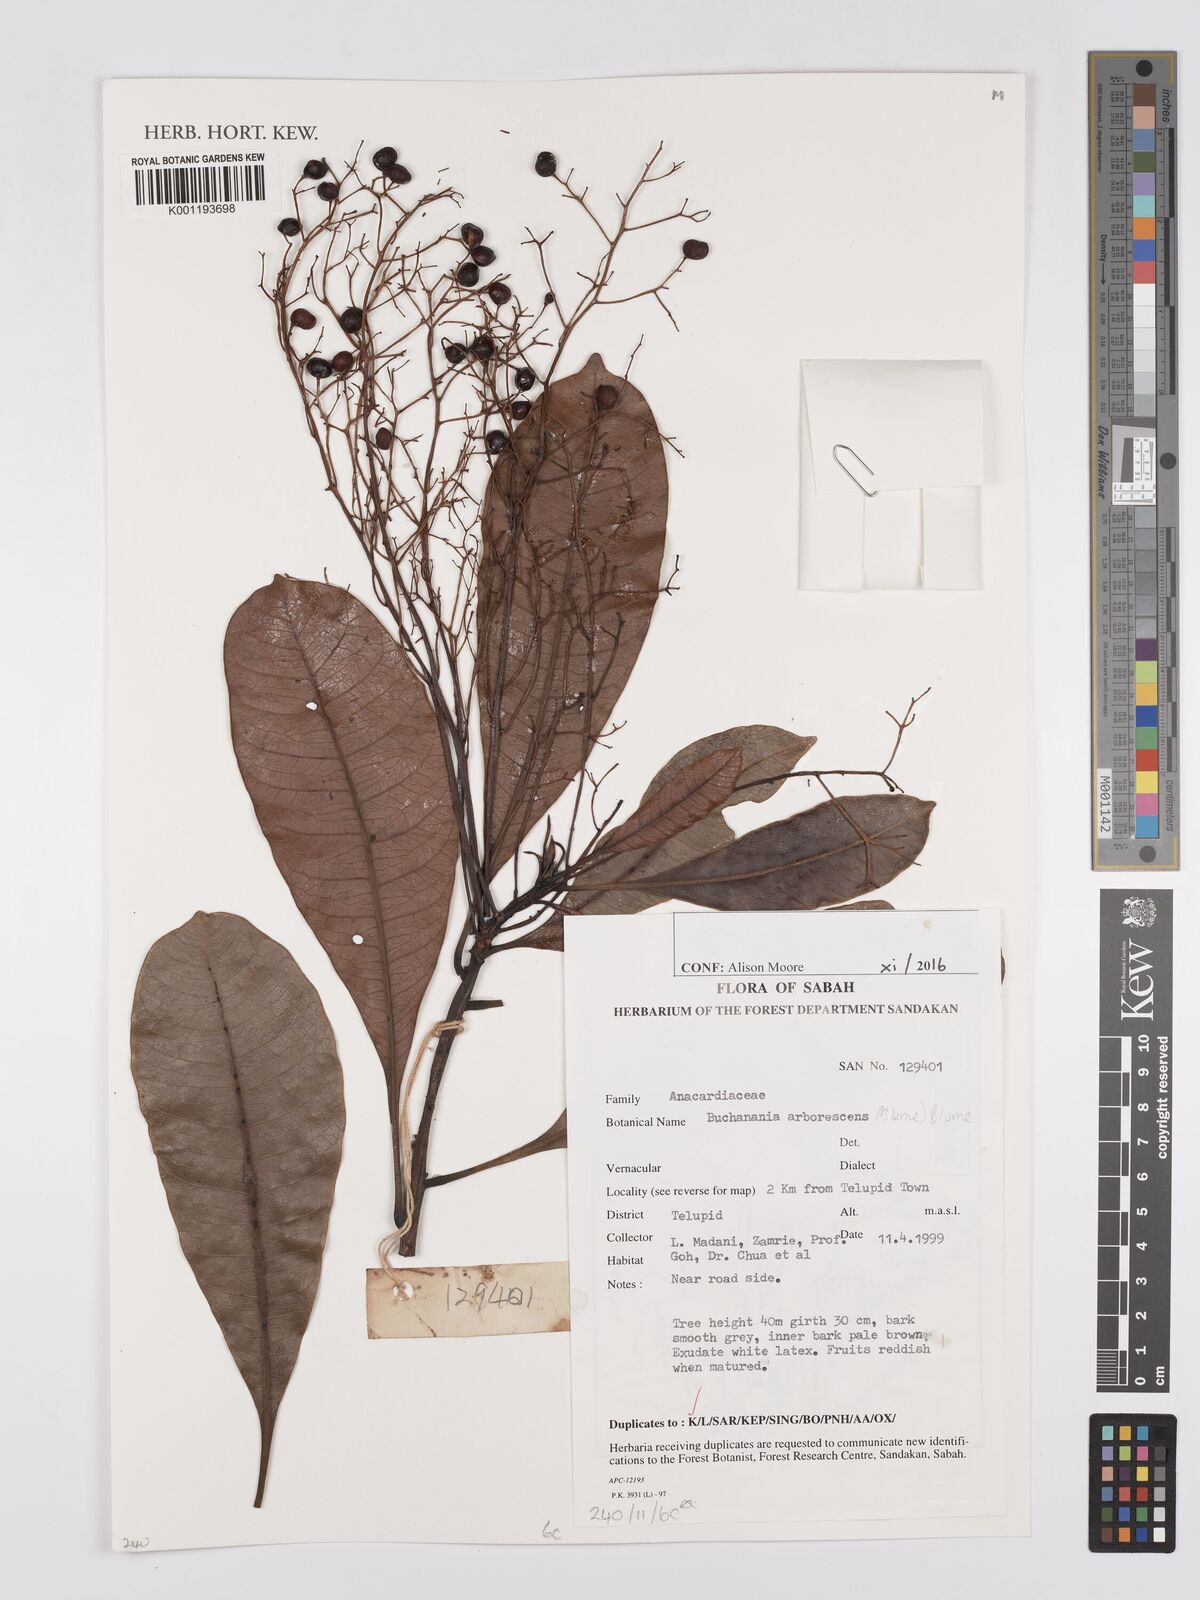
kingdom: Plantae
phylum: Tracheophyta
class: Magnoliopsida
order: Sapindales
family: Anacardiaceae
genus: Buchanania
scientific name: Buchanania arborescens
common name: Sparrow’s mango
